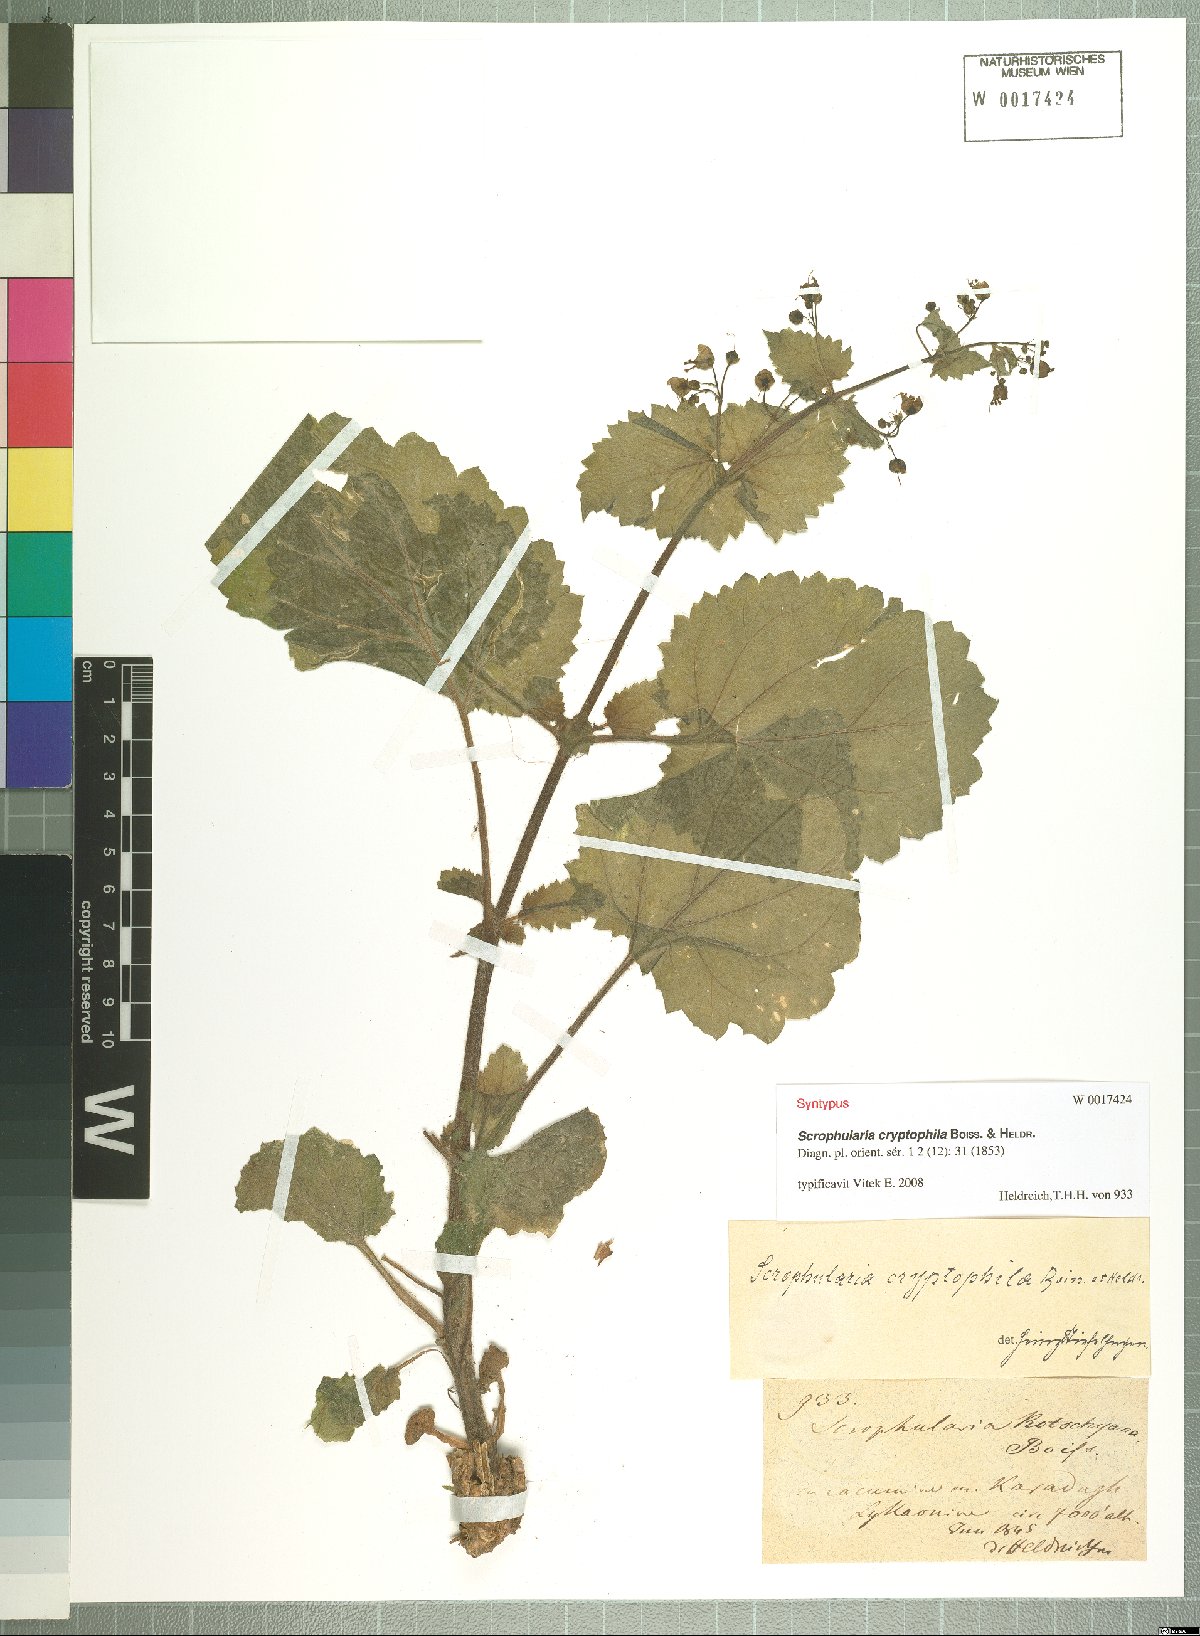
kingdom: Plantae
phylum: Tracheophyta
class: Magnoliopsida
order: Lamiales
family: Scrophulariaceae
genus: Scrophularia
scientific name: Scrophularia cryptophila
